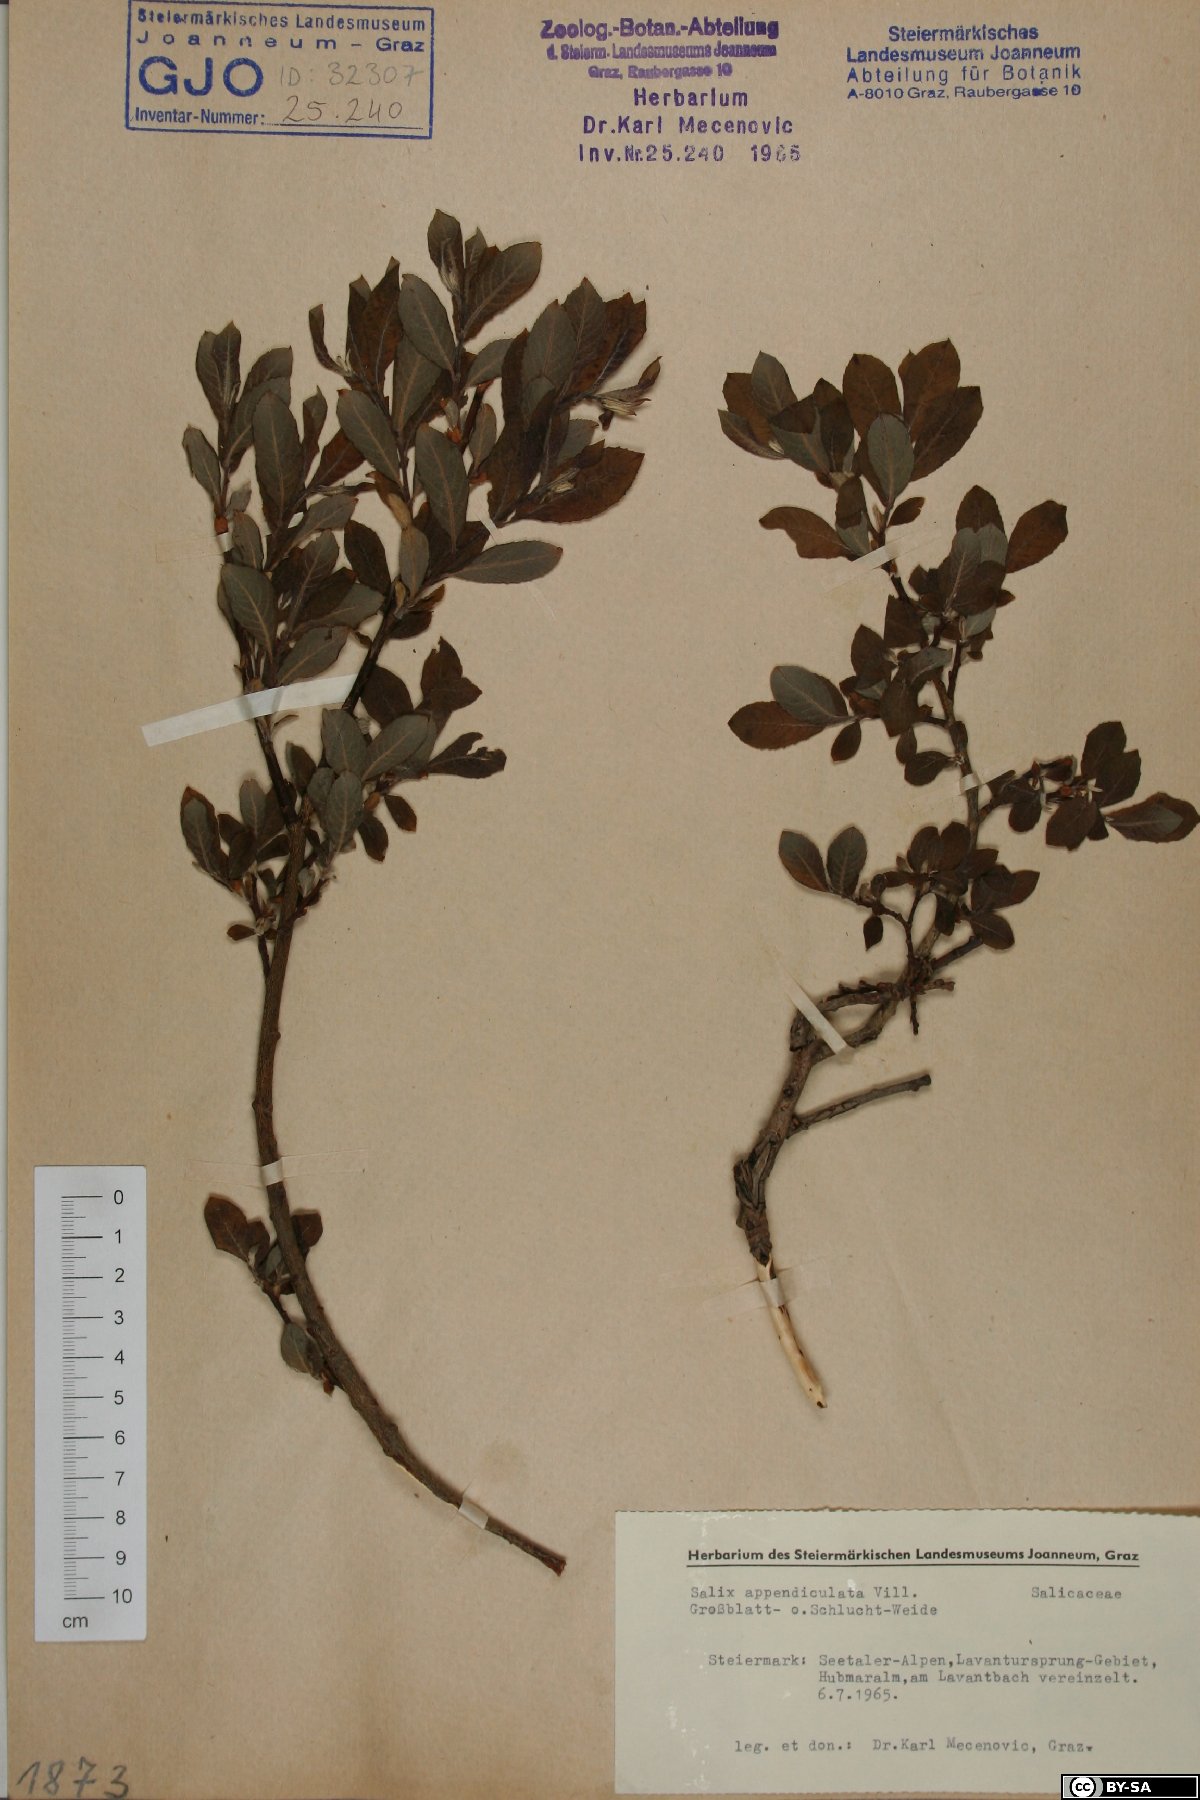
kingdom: Plantae
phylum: Tracheophyta
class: Magnoliopsida
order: Malpighiales
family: Salicaceae
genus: Salix
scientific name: Salix appendiculata
